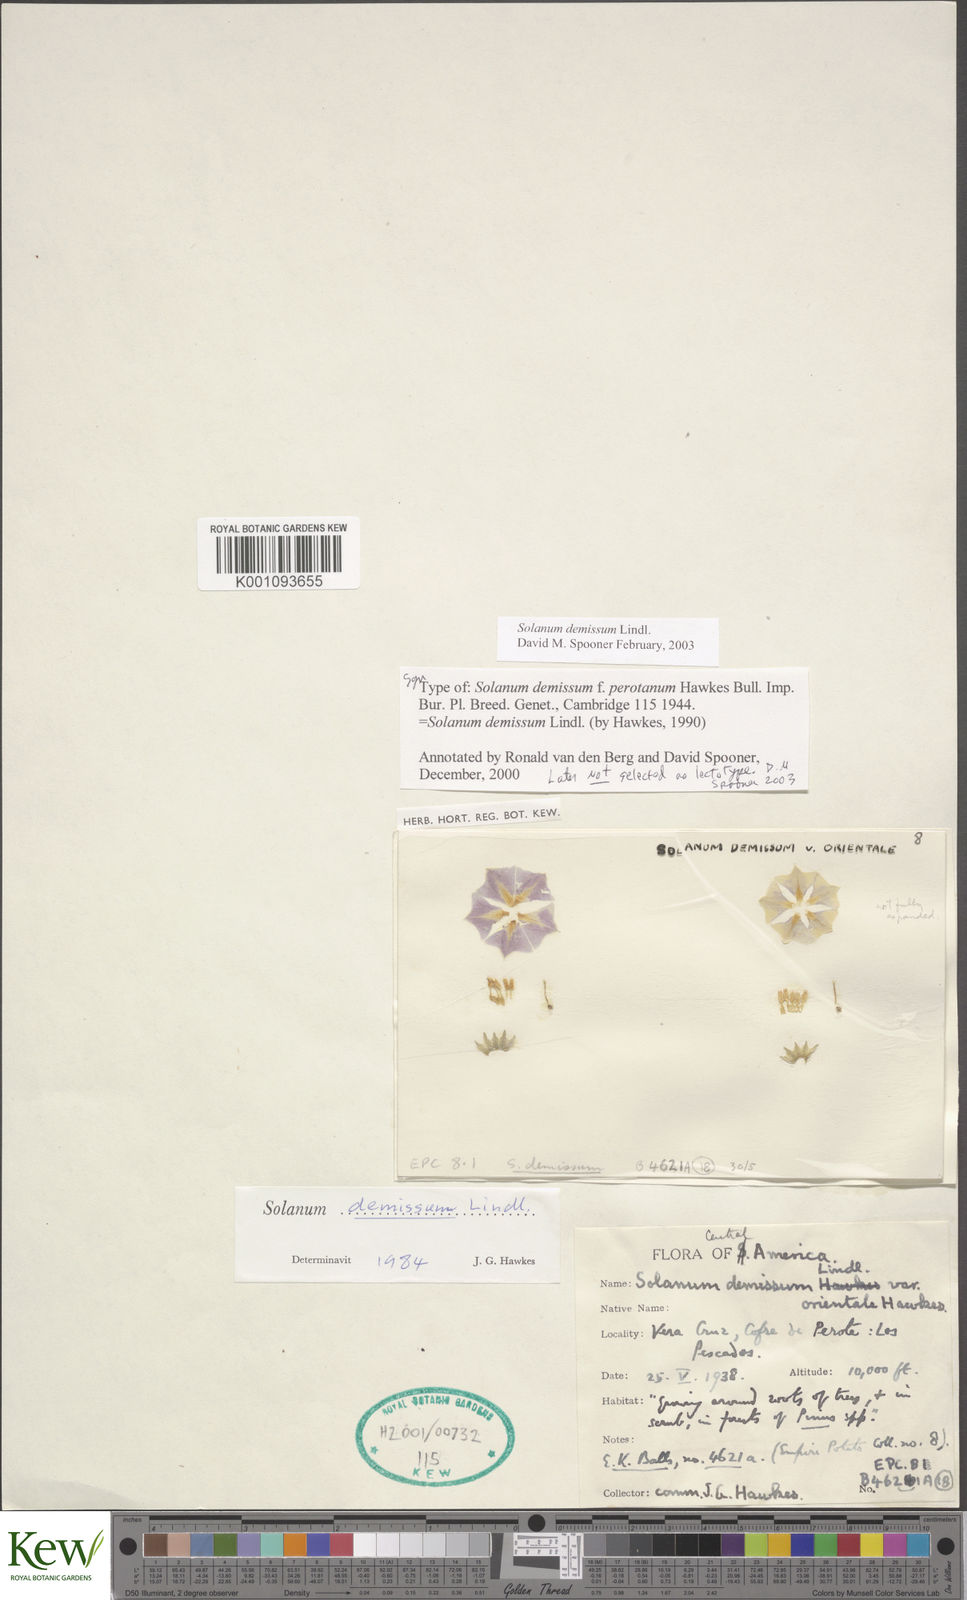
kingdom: Plantae
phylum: Tracheophyta
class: Magnoliopsida
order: Solanales
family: Solanaceae
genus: Solanum
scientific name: Solanum demissum
